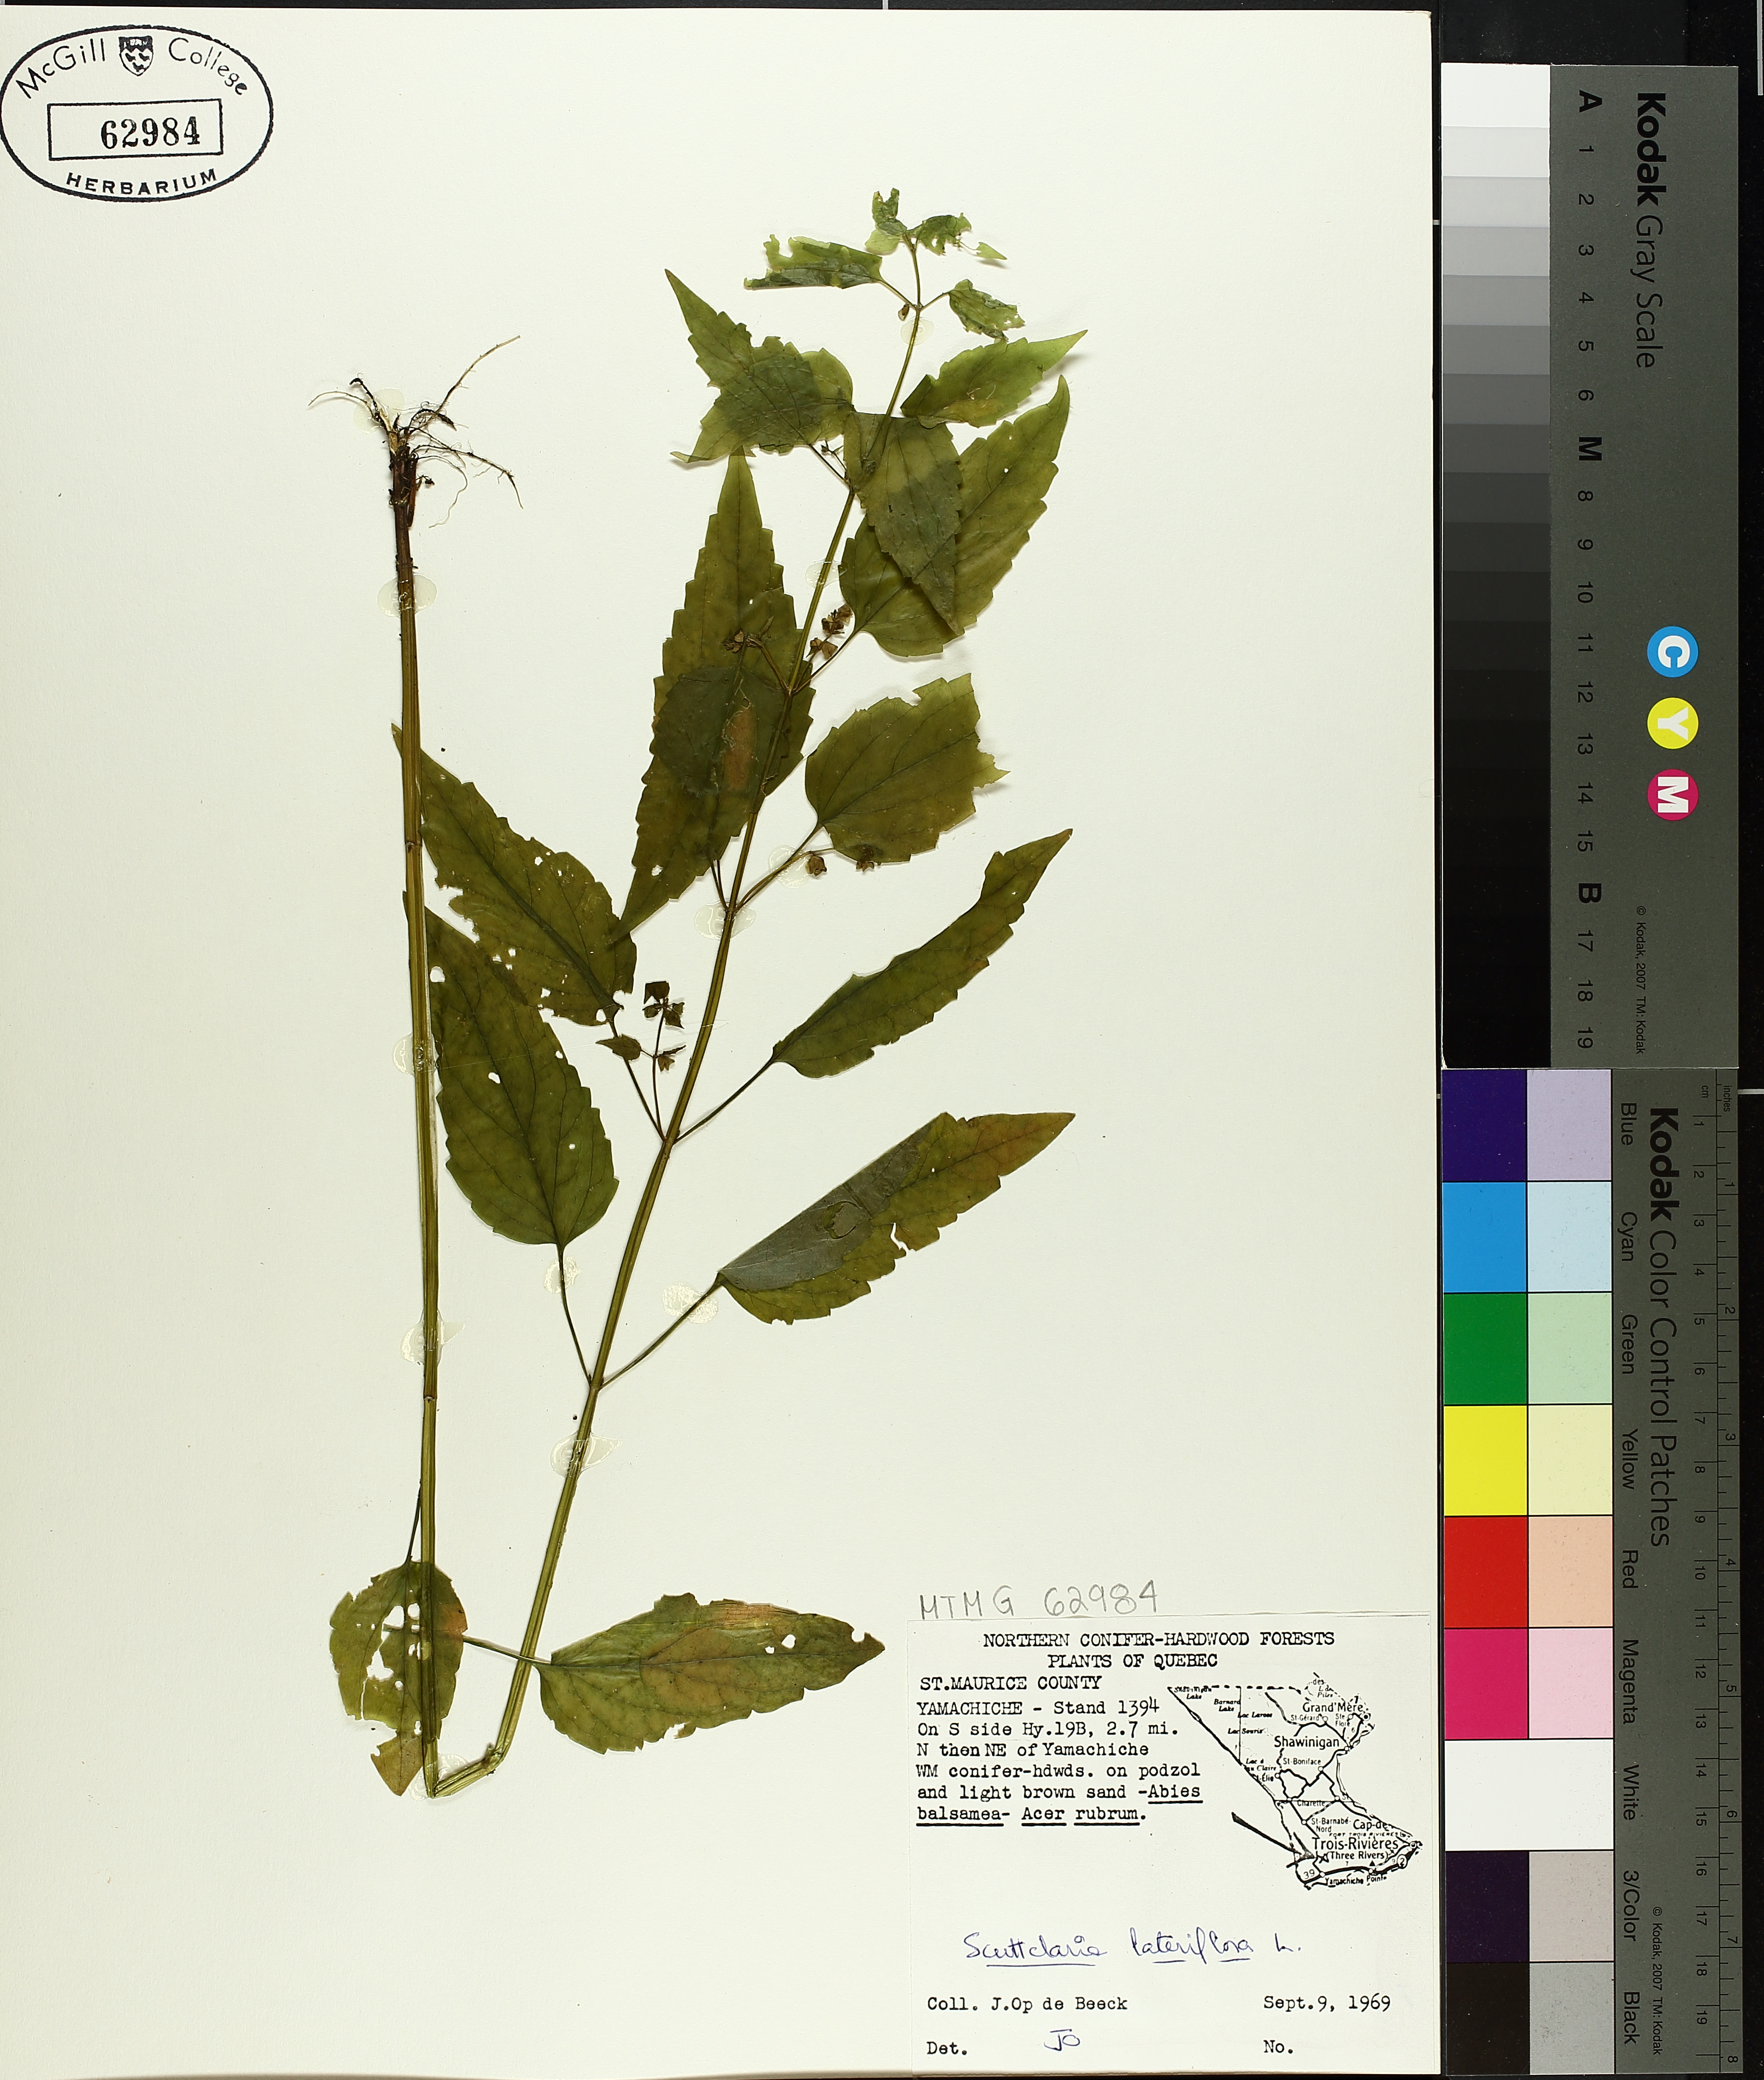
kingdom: Plantae
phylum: Tracheophyta
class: Magnoliopsida
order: Lamiales
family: Lamiaceae
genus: Scutellaria
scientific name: Scutellaria lateriflora
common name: Blue skullcap
